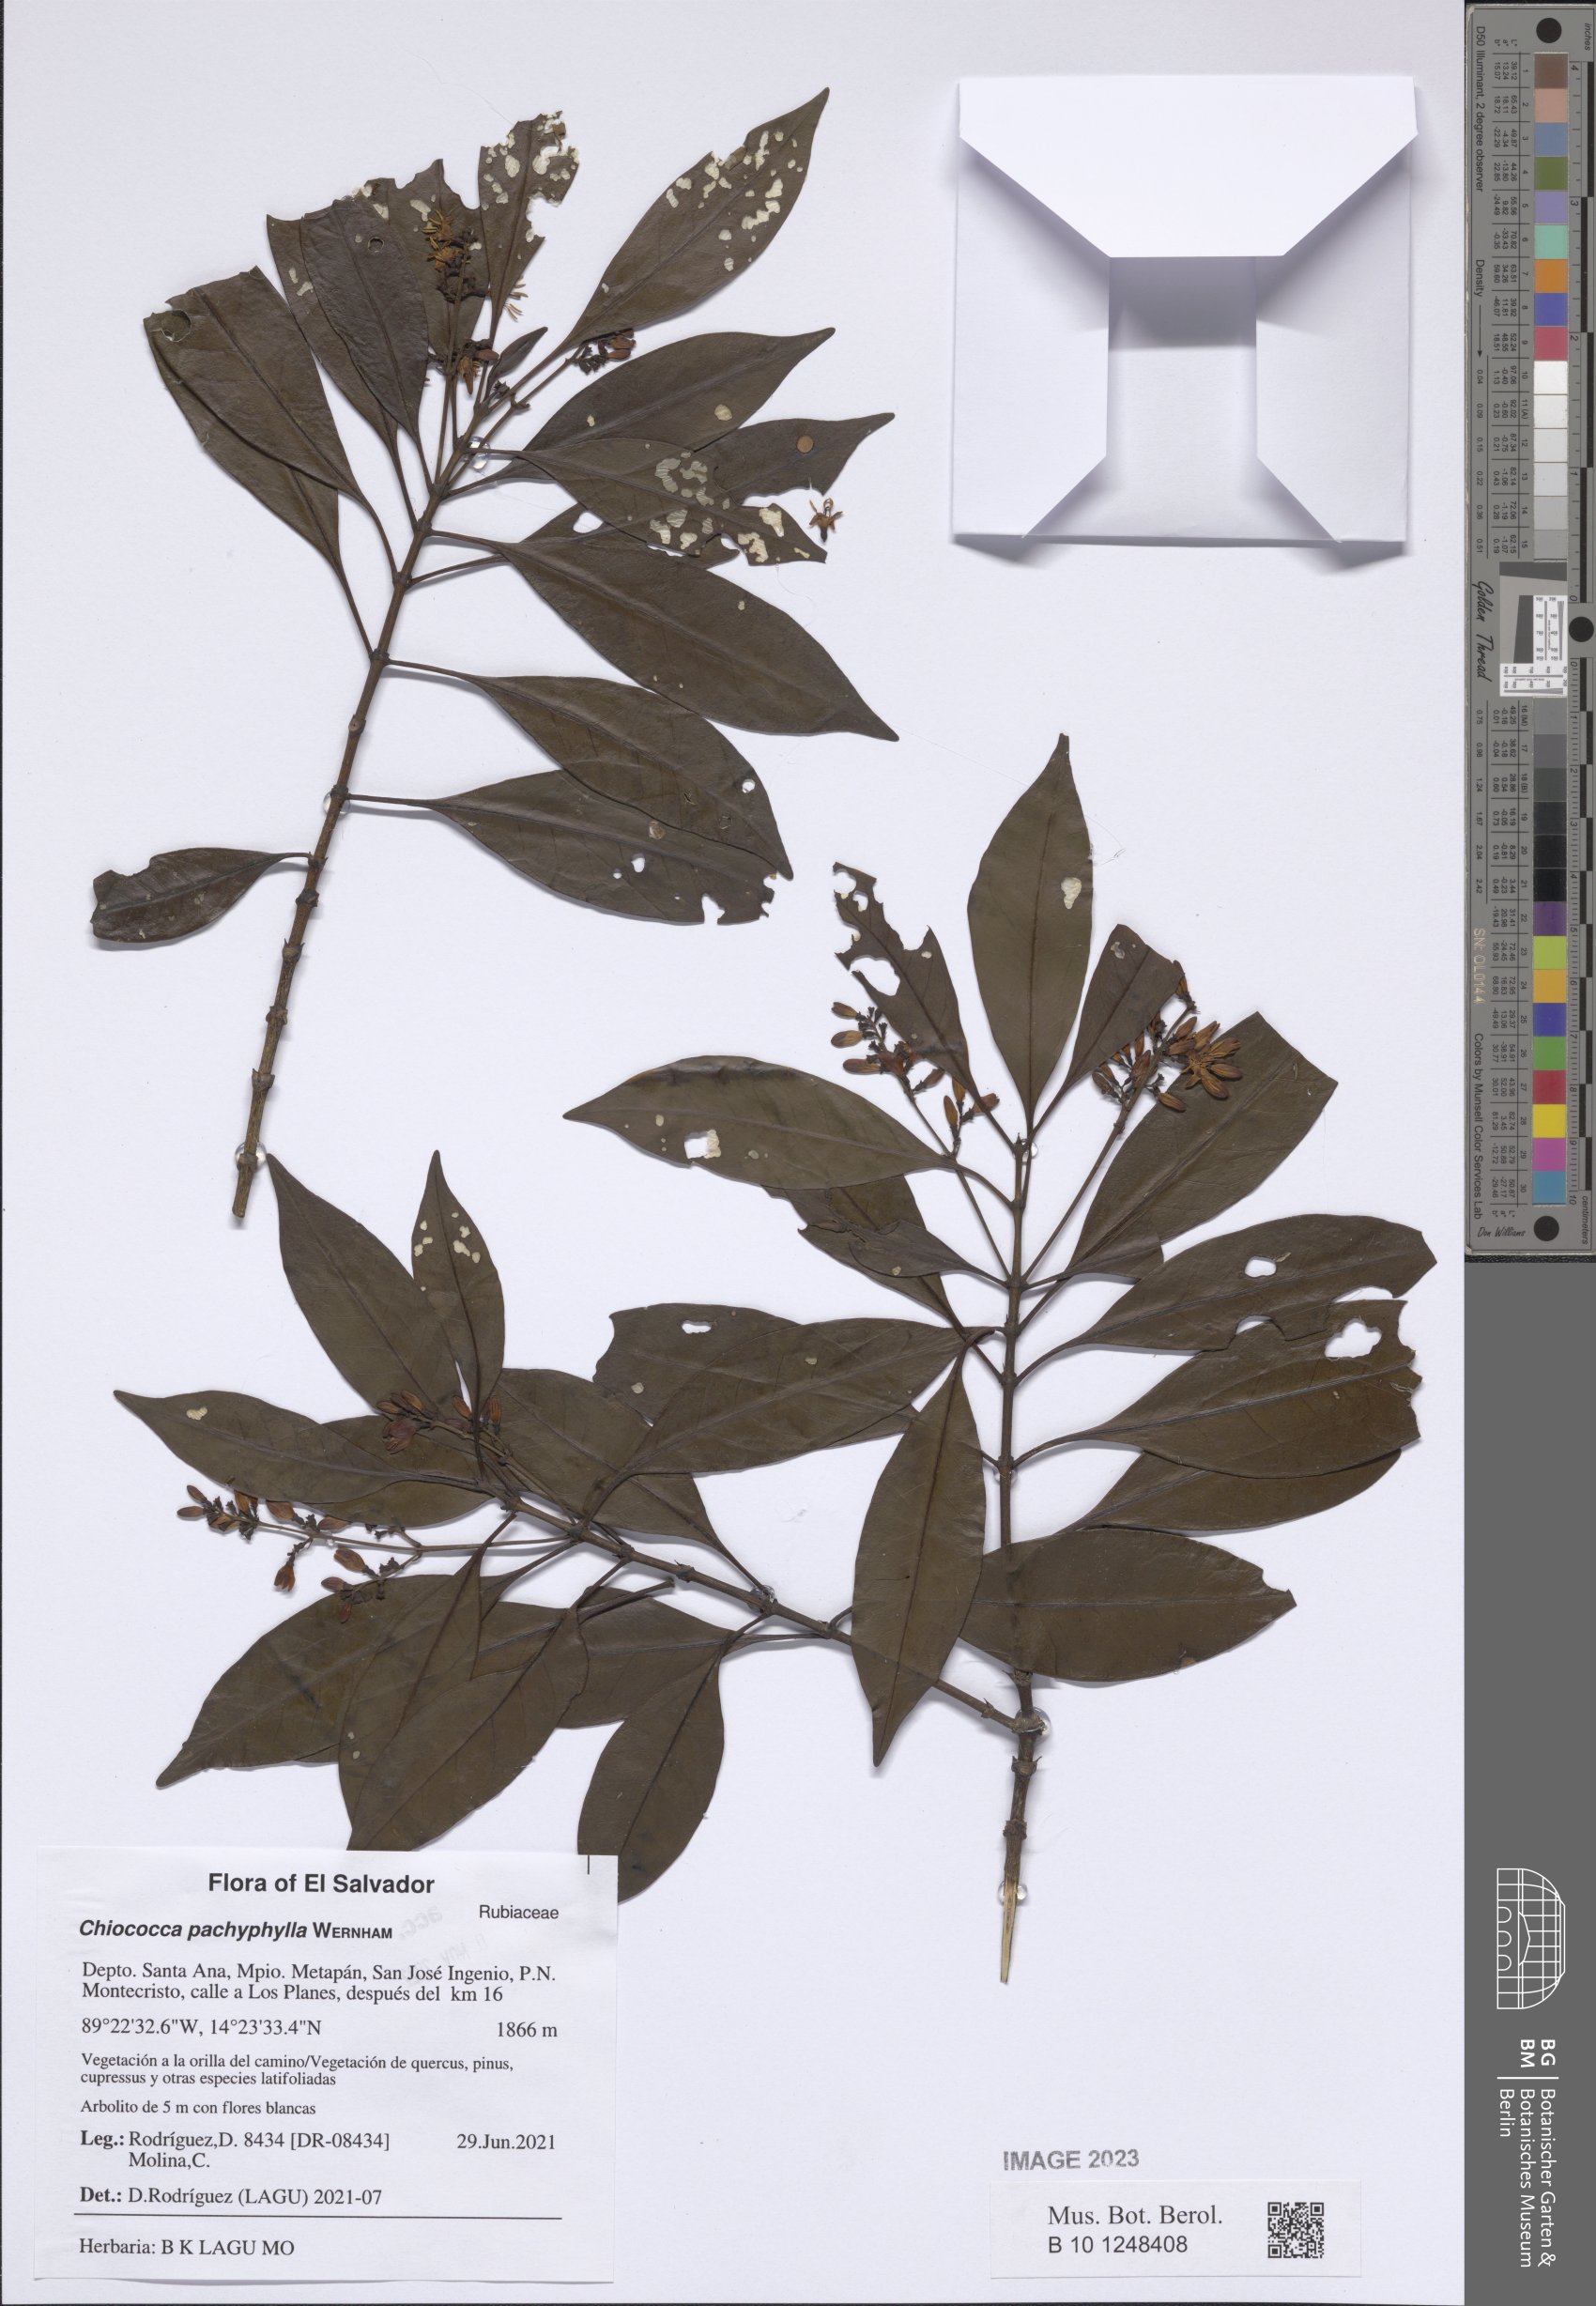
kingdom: Plantae
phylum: Tracheophyta
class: Magnoliopsida
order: Gentianales
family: Rubiaceae
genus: Chiococca
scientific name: Chiococca pachyphylla
